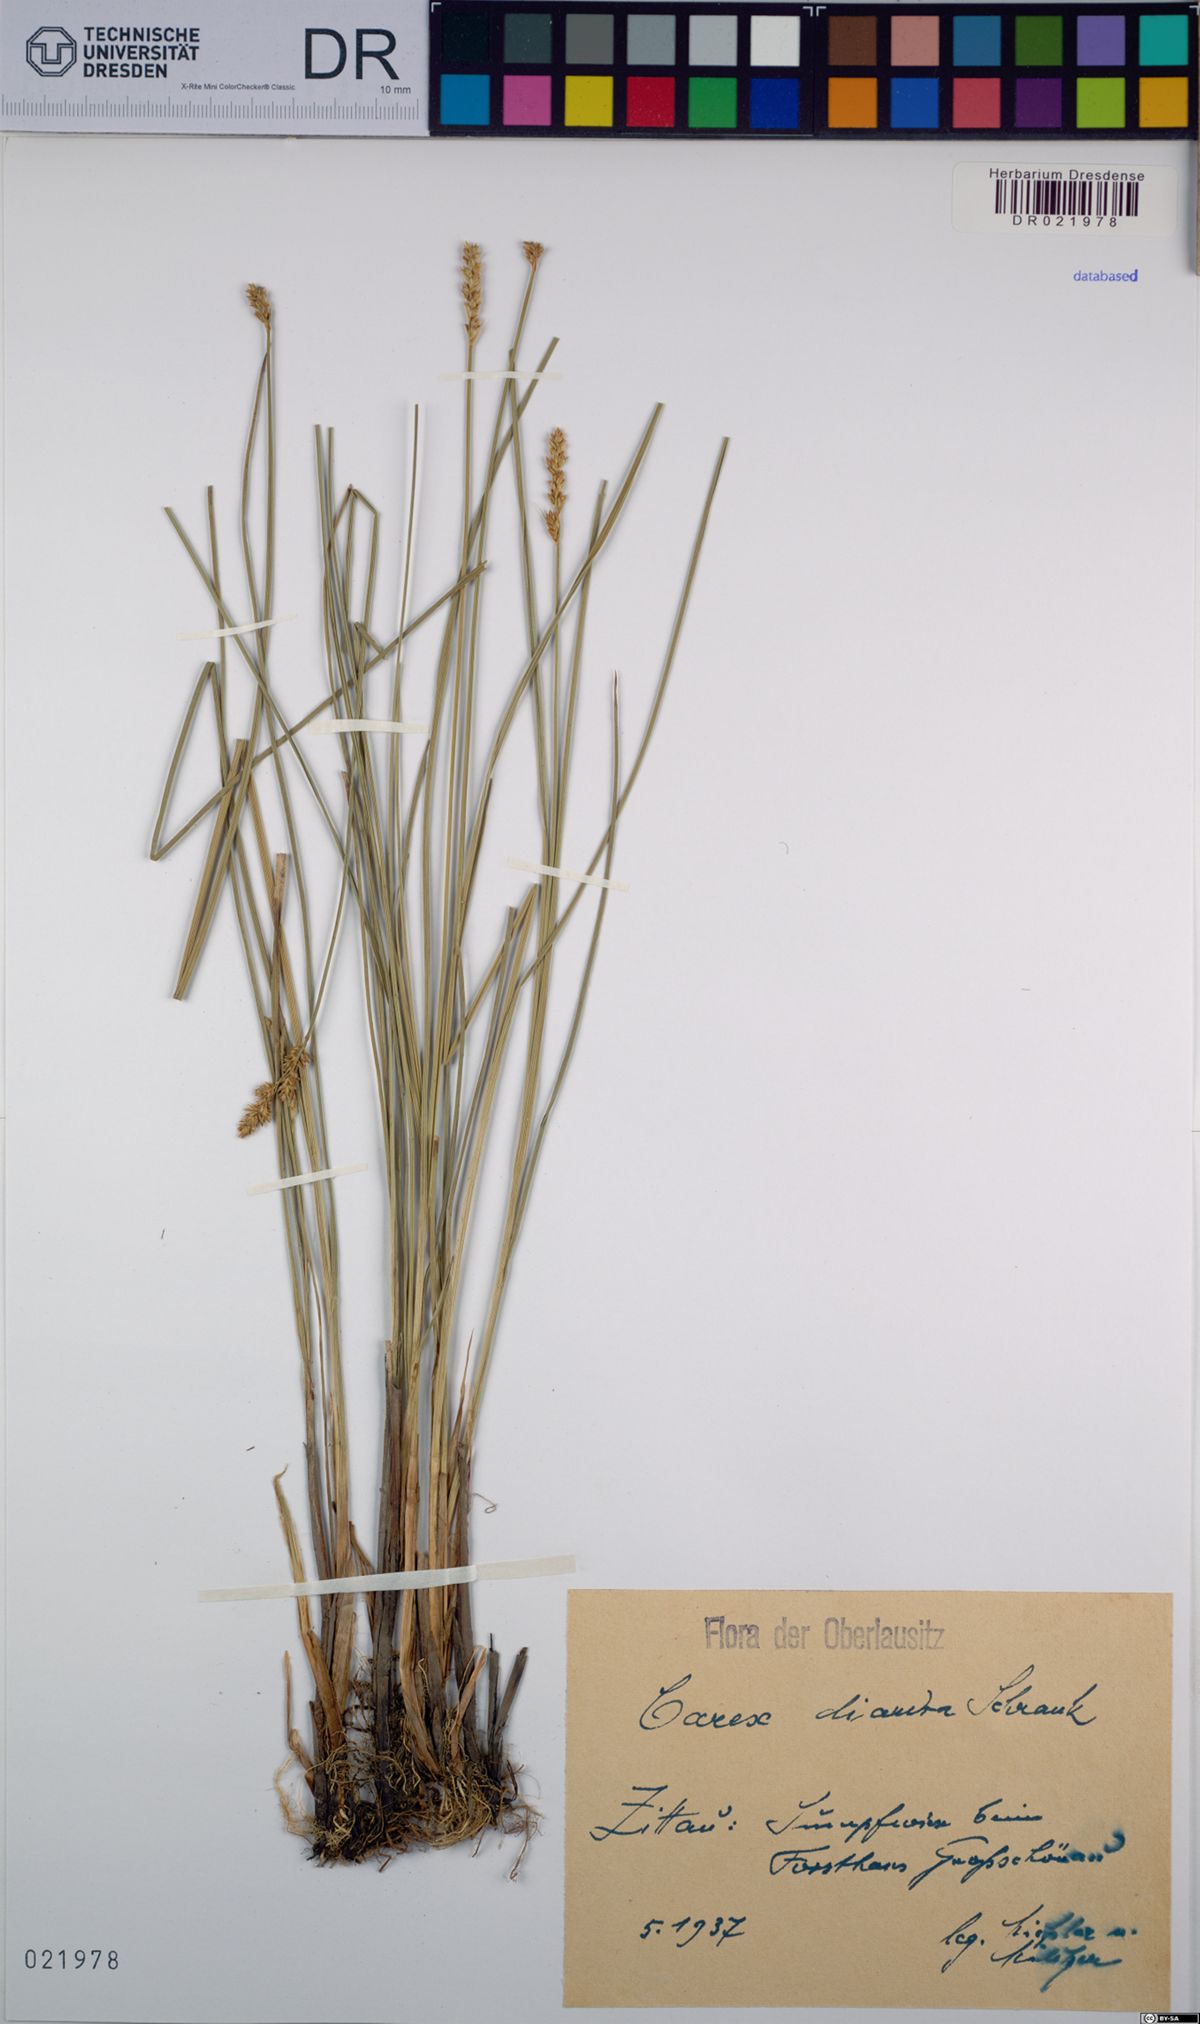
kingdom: Plantae
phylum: Tracheophyta
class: Liliopsida
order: Poales
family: Cyperaceae
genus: Carex
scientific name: Carex diandra
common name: Lesser tussock-sedge
